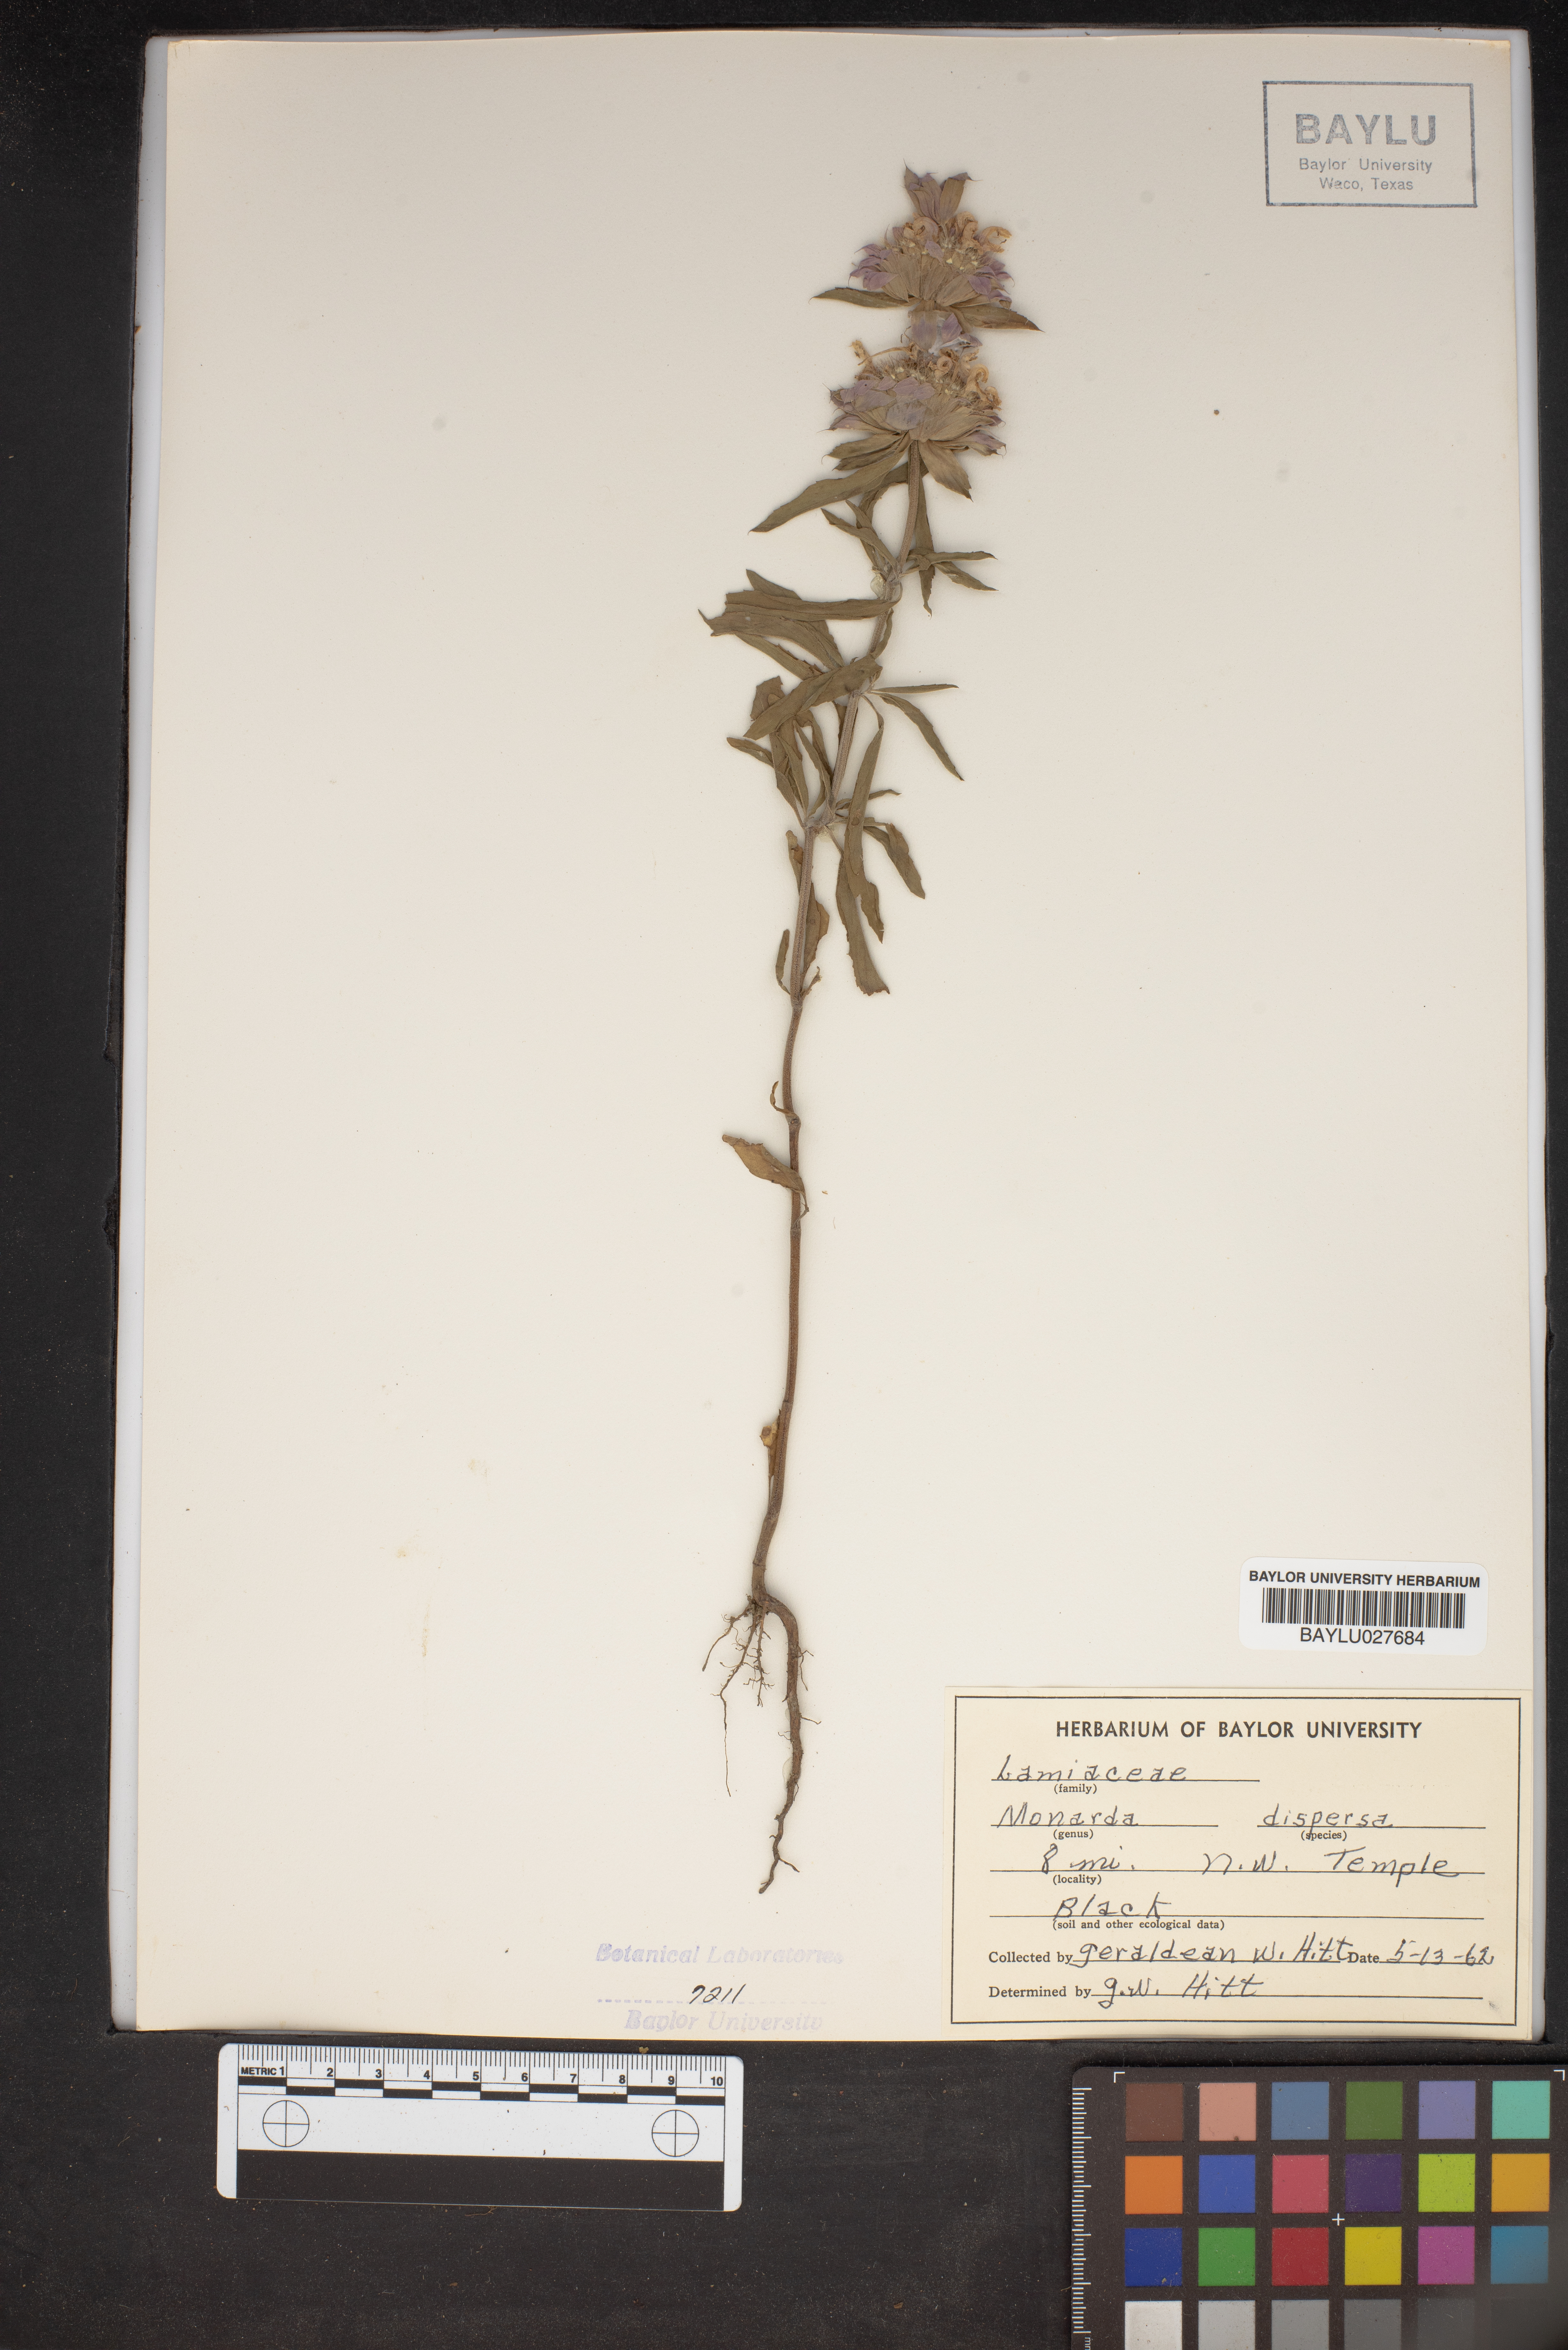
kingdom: Plantae
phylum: Tracheophyta
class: Magnoliopsida
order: Lamiales
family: Lamiaceae
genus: Monarda
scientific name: Monarda citriodora
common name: Lemon beebalm
